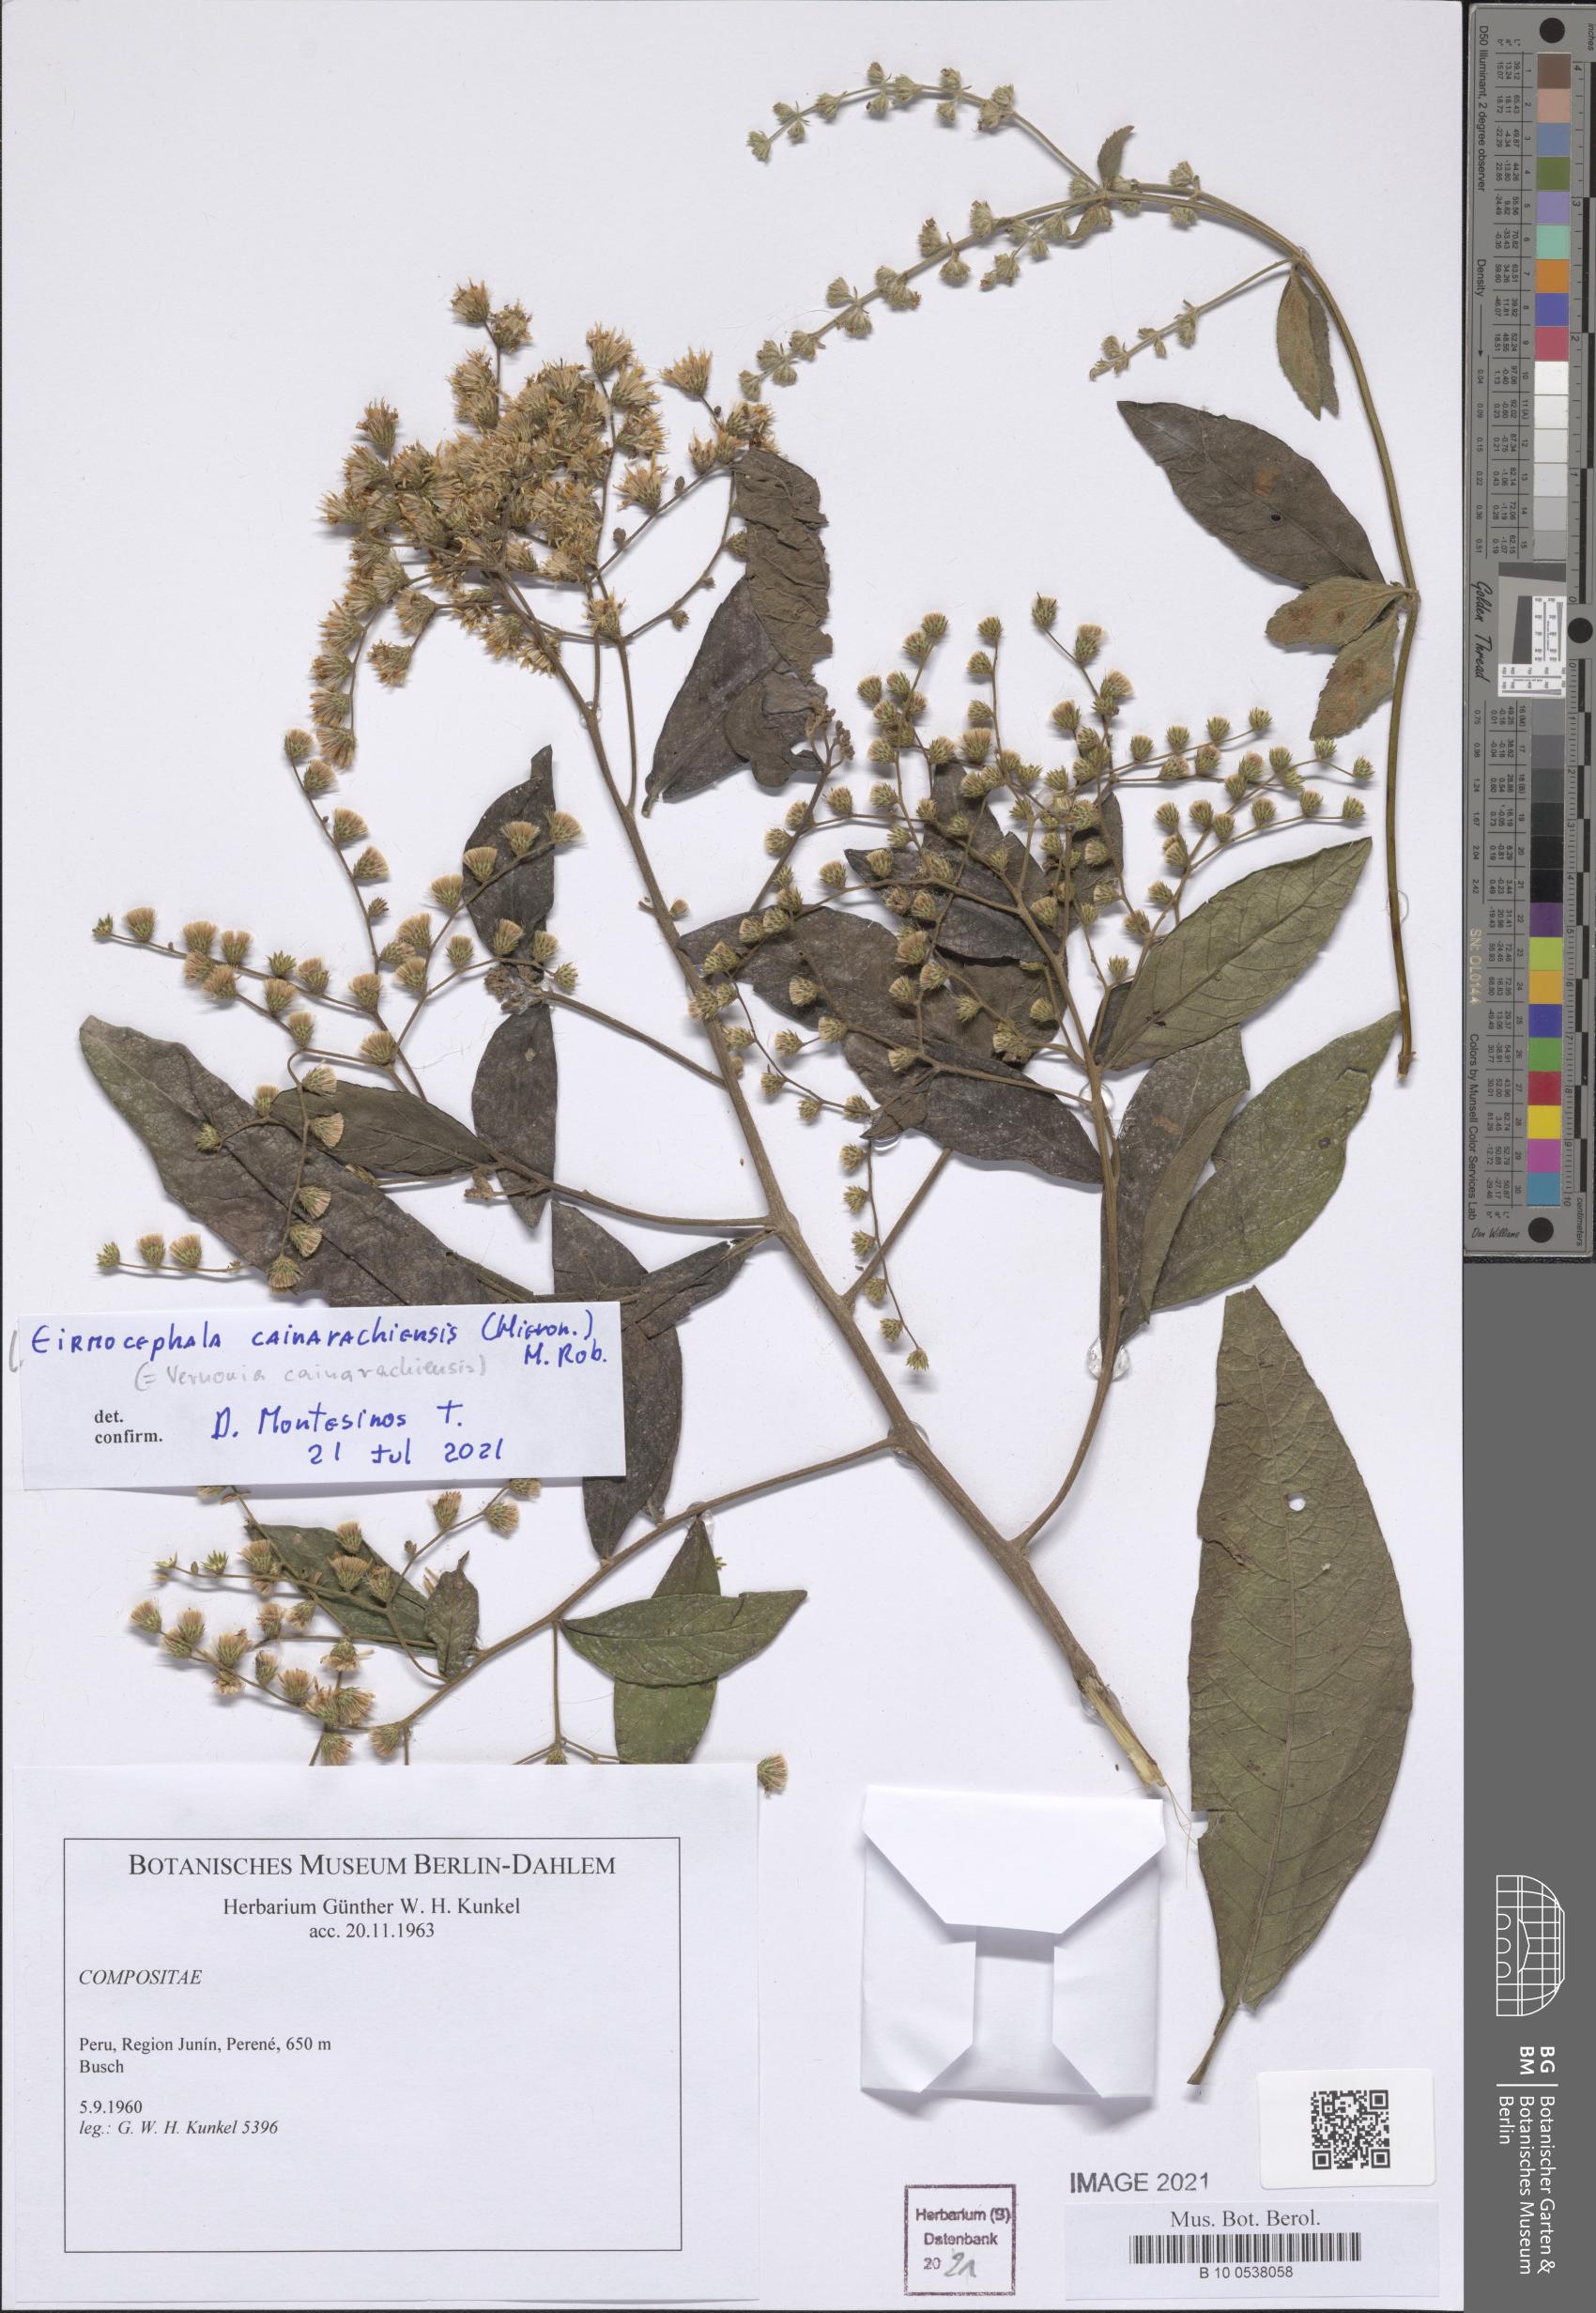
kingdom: Plantae
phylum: Tracheophyta
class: Magnoliopsida
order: Asterales
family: Asteraceae
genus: Eirmocephala
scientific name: Eirmocephala cainarachiensis
